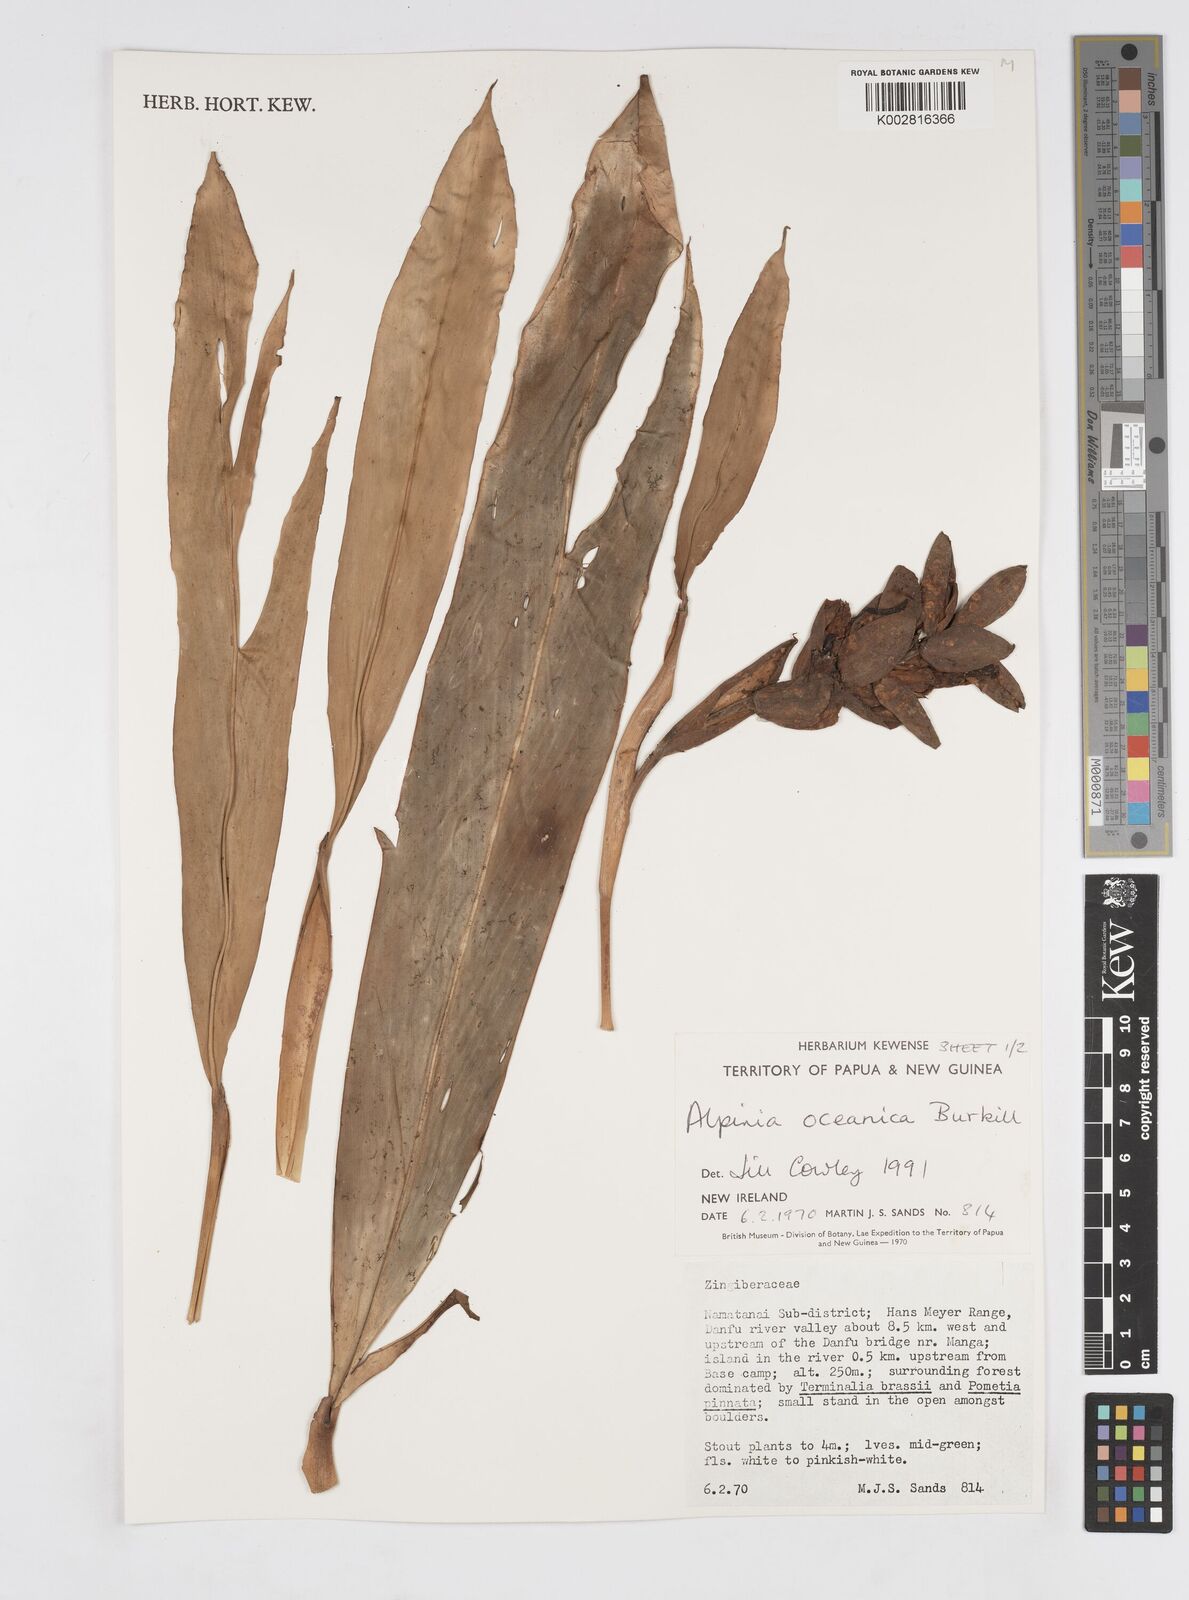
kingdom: Plantae
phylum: Tracheophyta
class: Liliopsida
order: Zingiberales
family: Zingiberaceae
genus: Alpinia
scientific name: Alpinia oceanica
